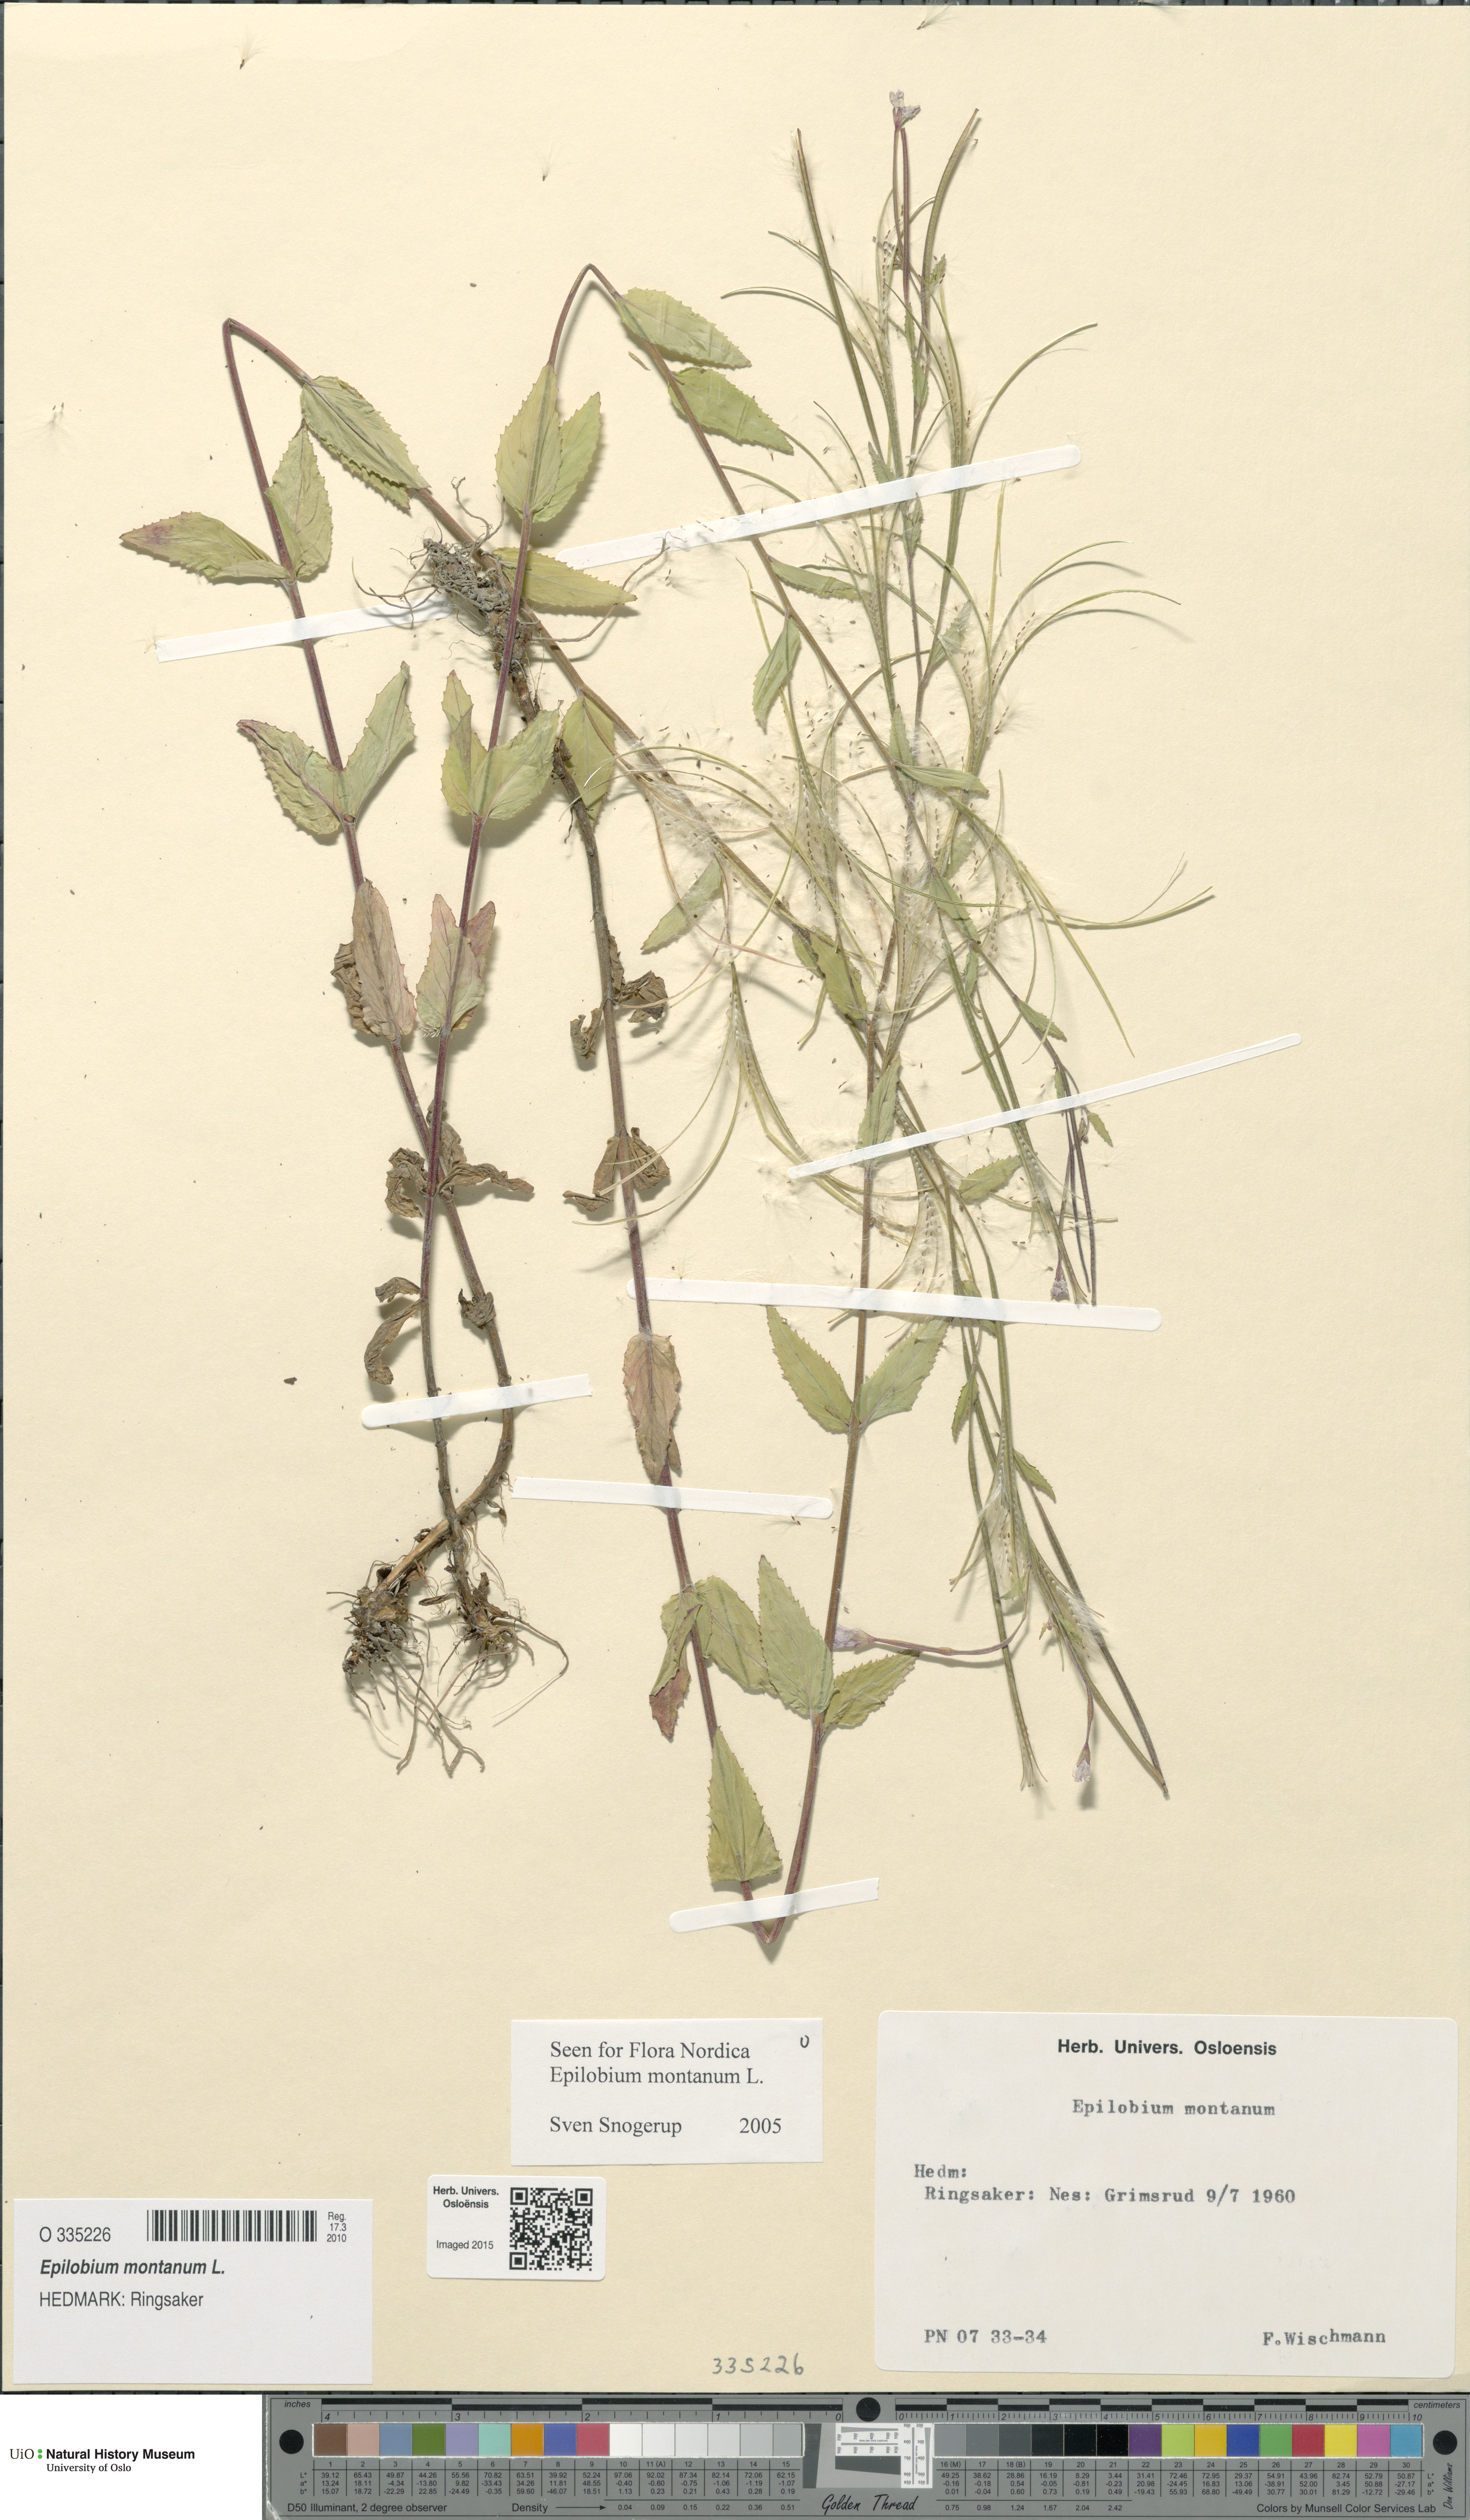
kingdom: Plantae
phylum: Tracheophyta
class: Magnoliopsida
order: Myrtales
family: Onagraceae
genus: Epilobium
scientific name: Epilobium montanum
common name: Broad-leaved willowherb
